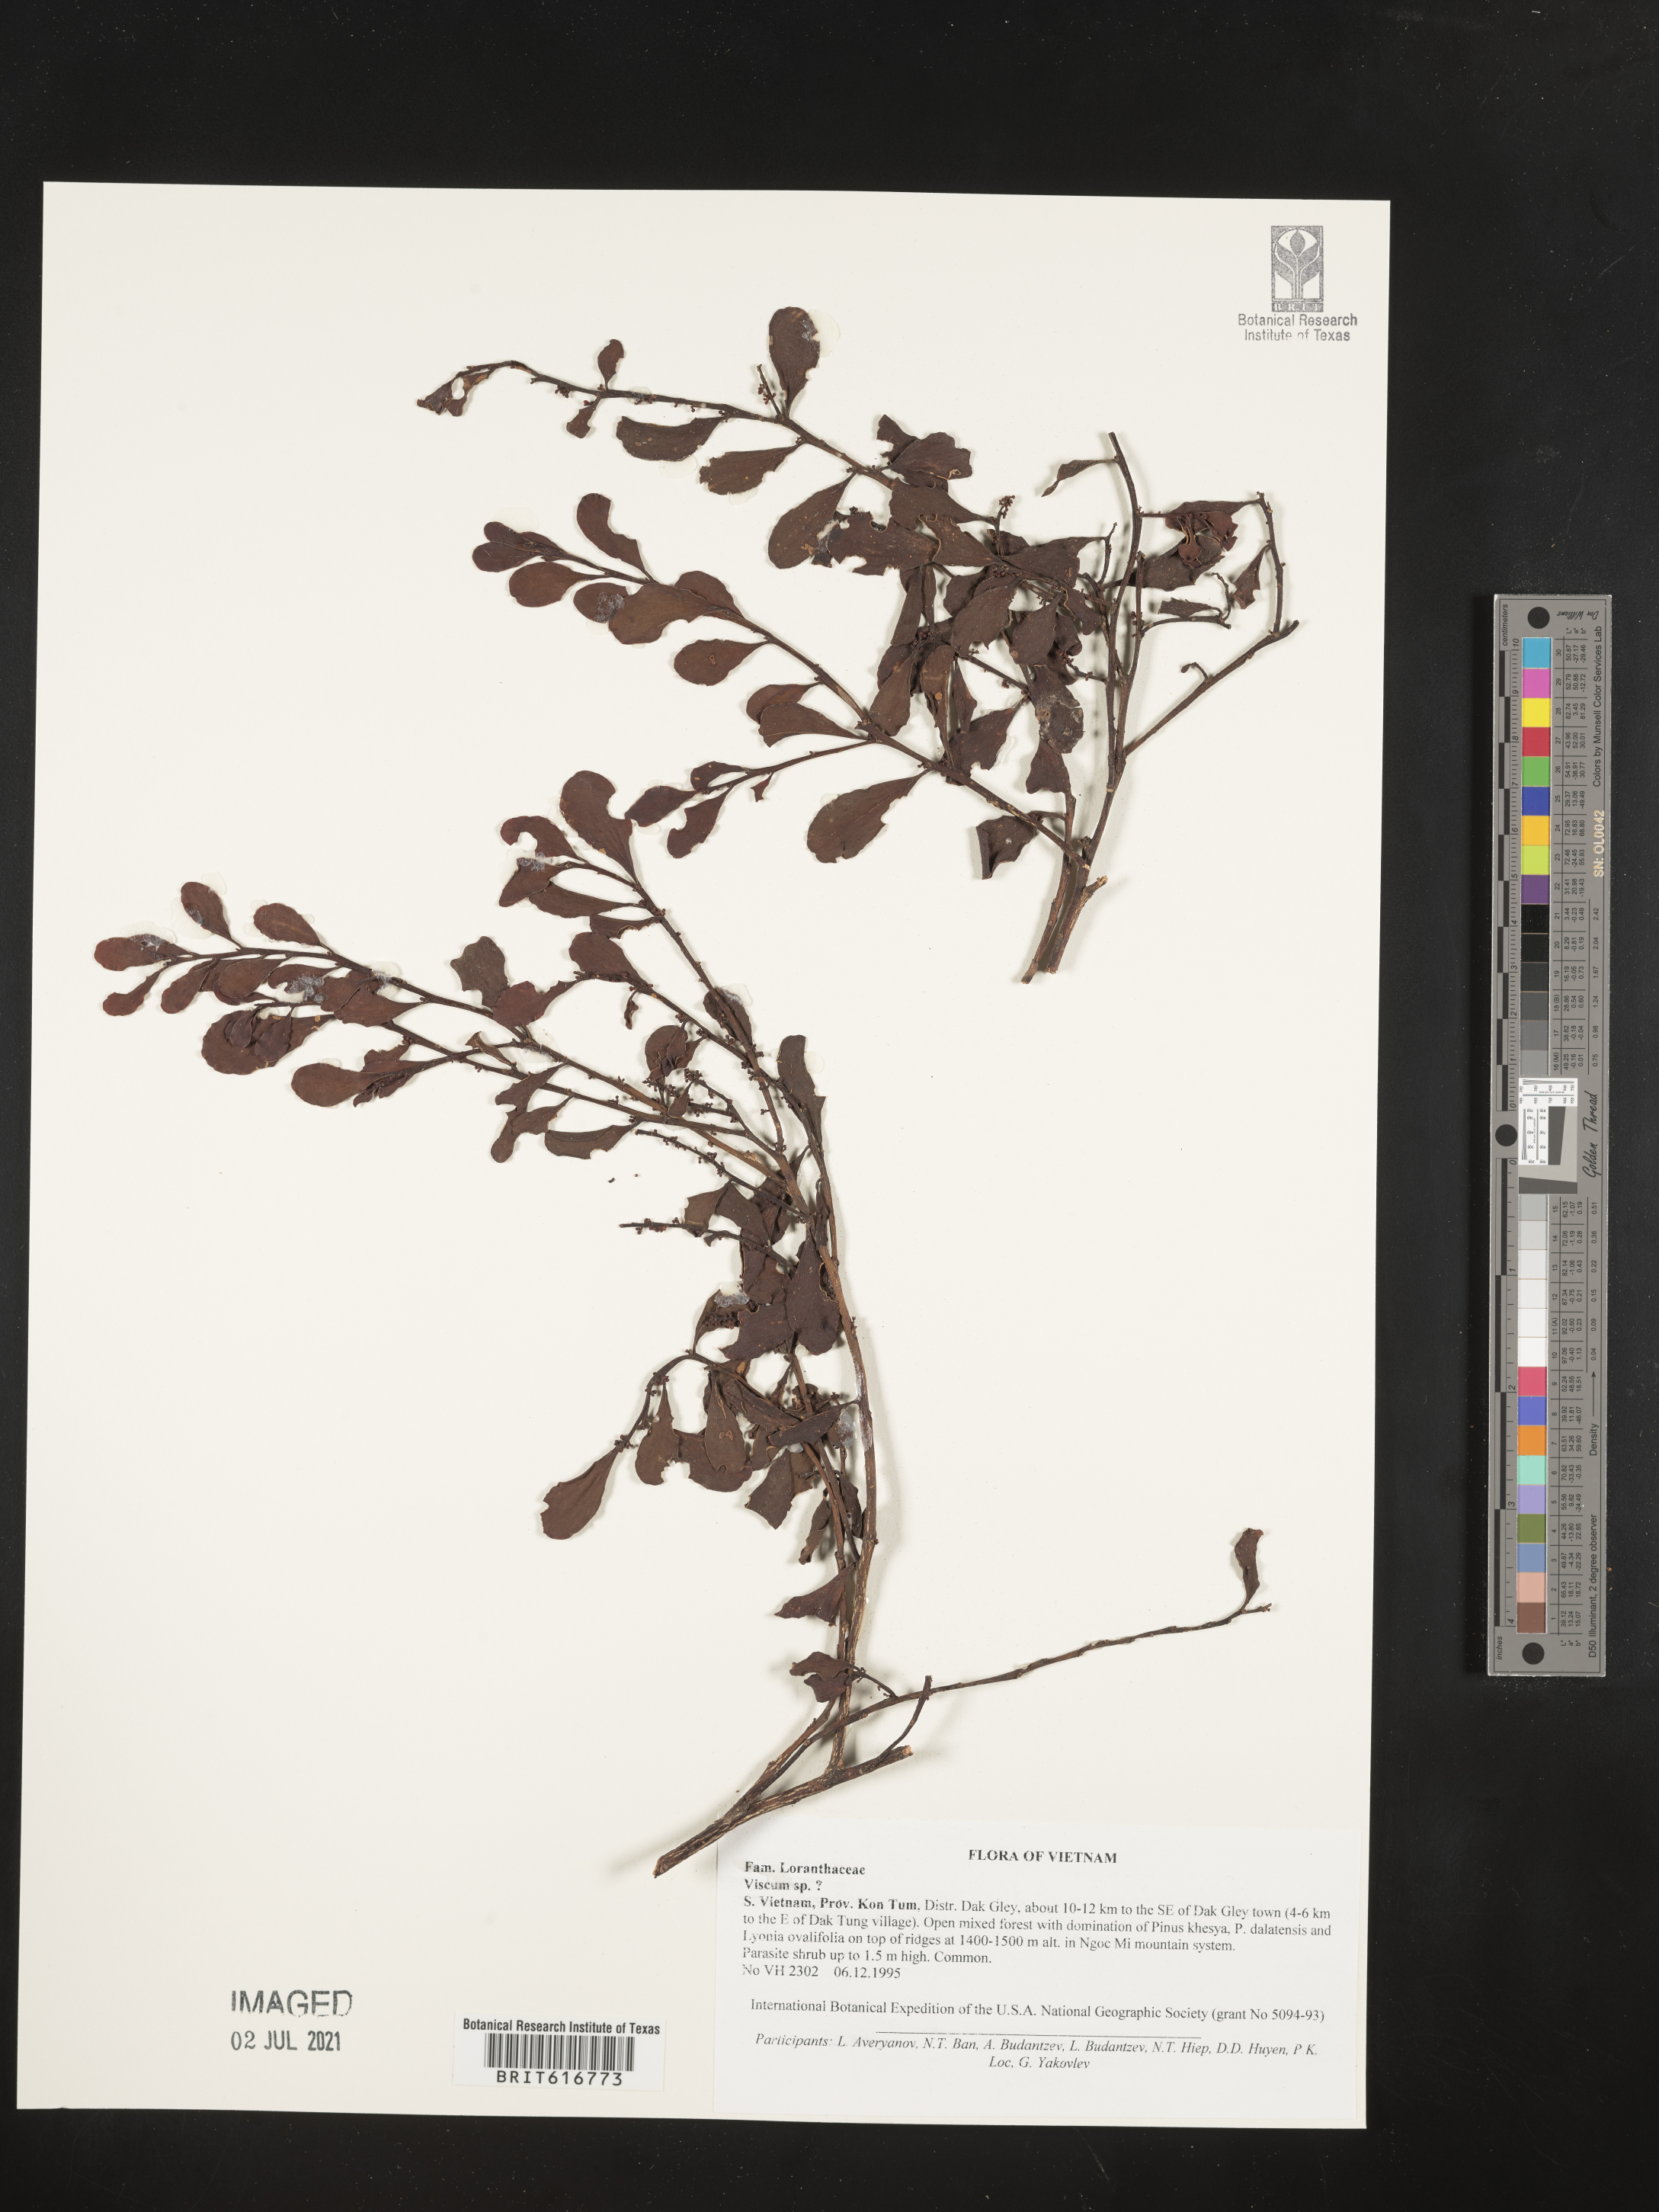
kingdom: Plantae
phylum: Tracheophyta
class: Magnoliopsida
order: Santalales
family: Viscaceae
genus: Viscum
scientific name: Viscum
